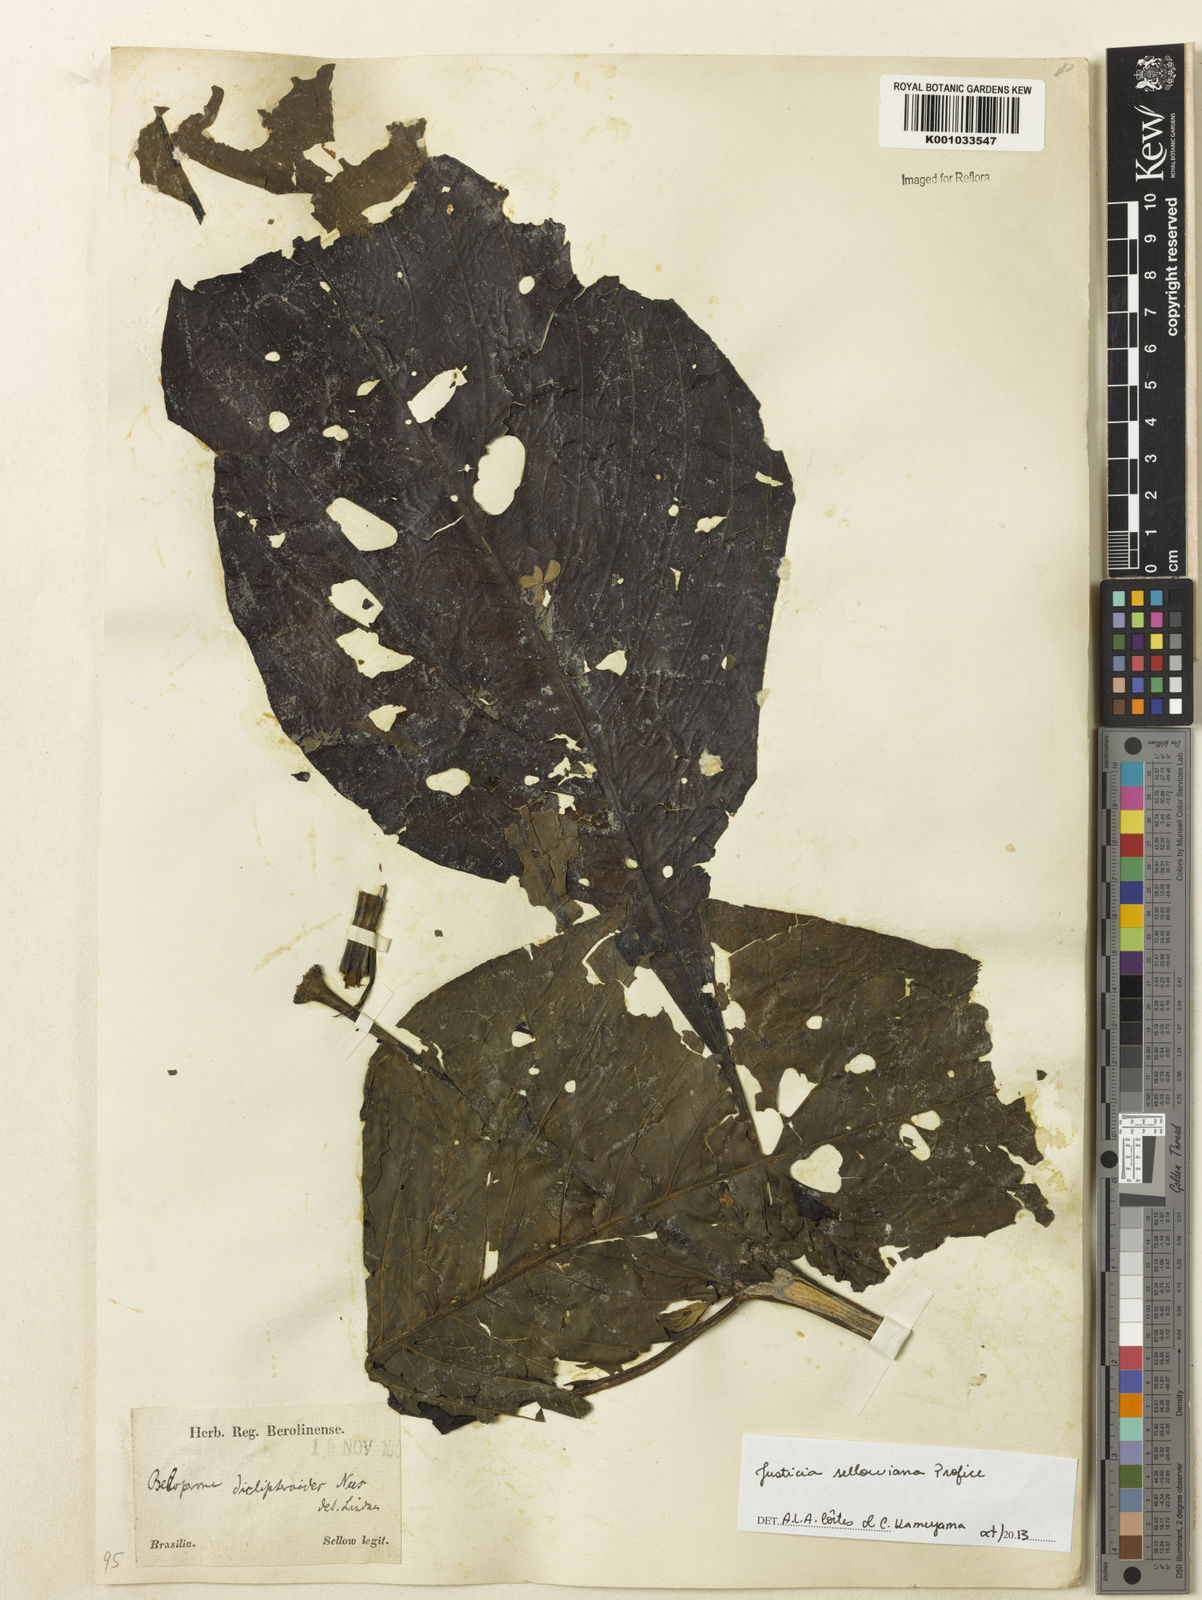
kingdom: Plantae
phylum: Tracheophyta
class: Magnoliopsida
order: Lamiales
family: Acanthaceae
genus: Justicia
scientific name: Justicia sellowiana
